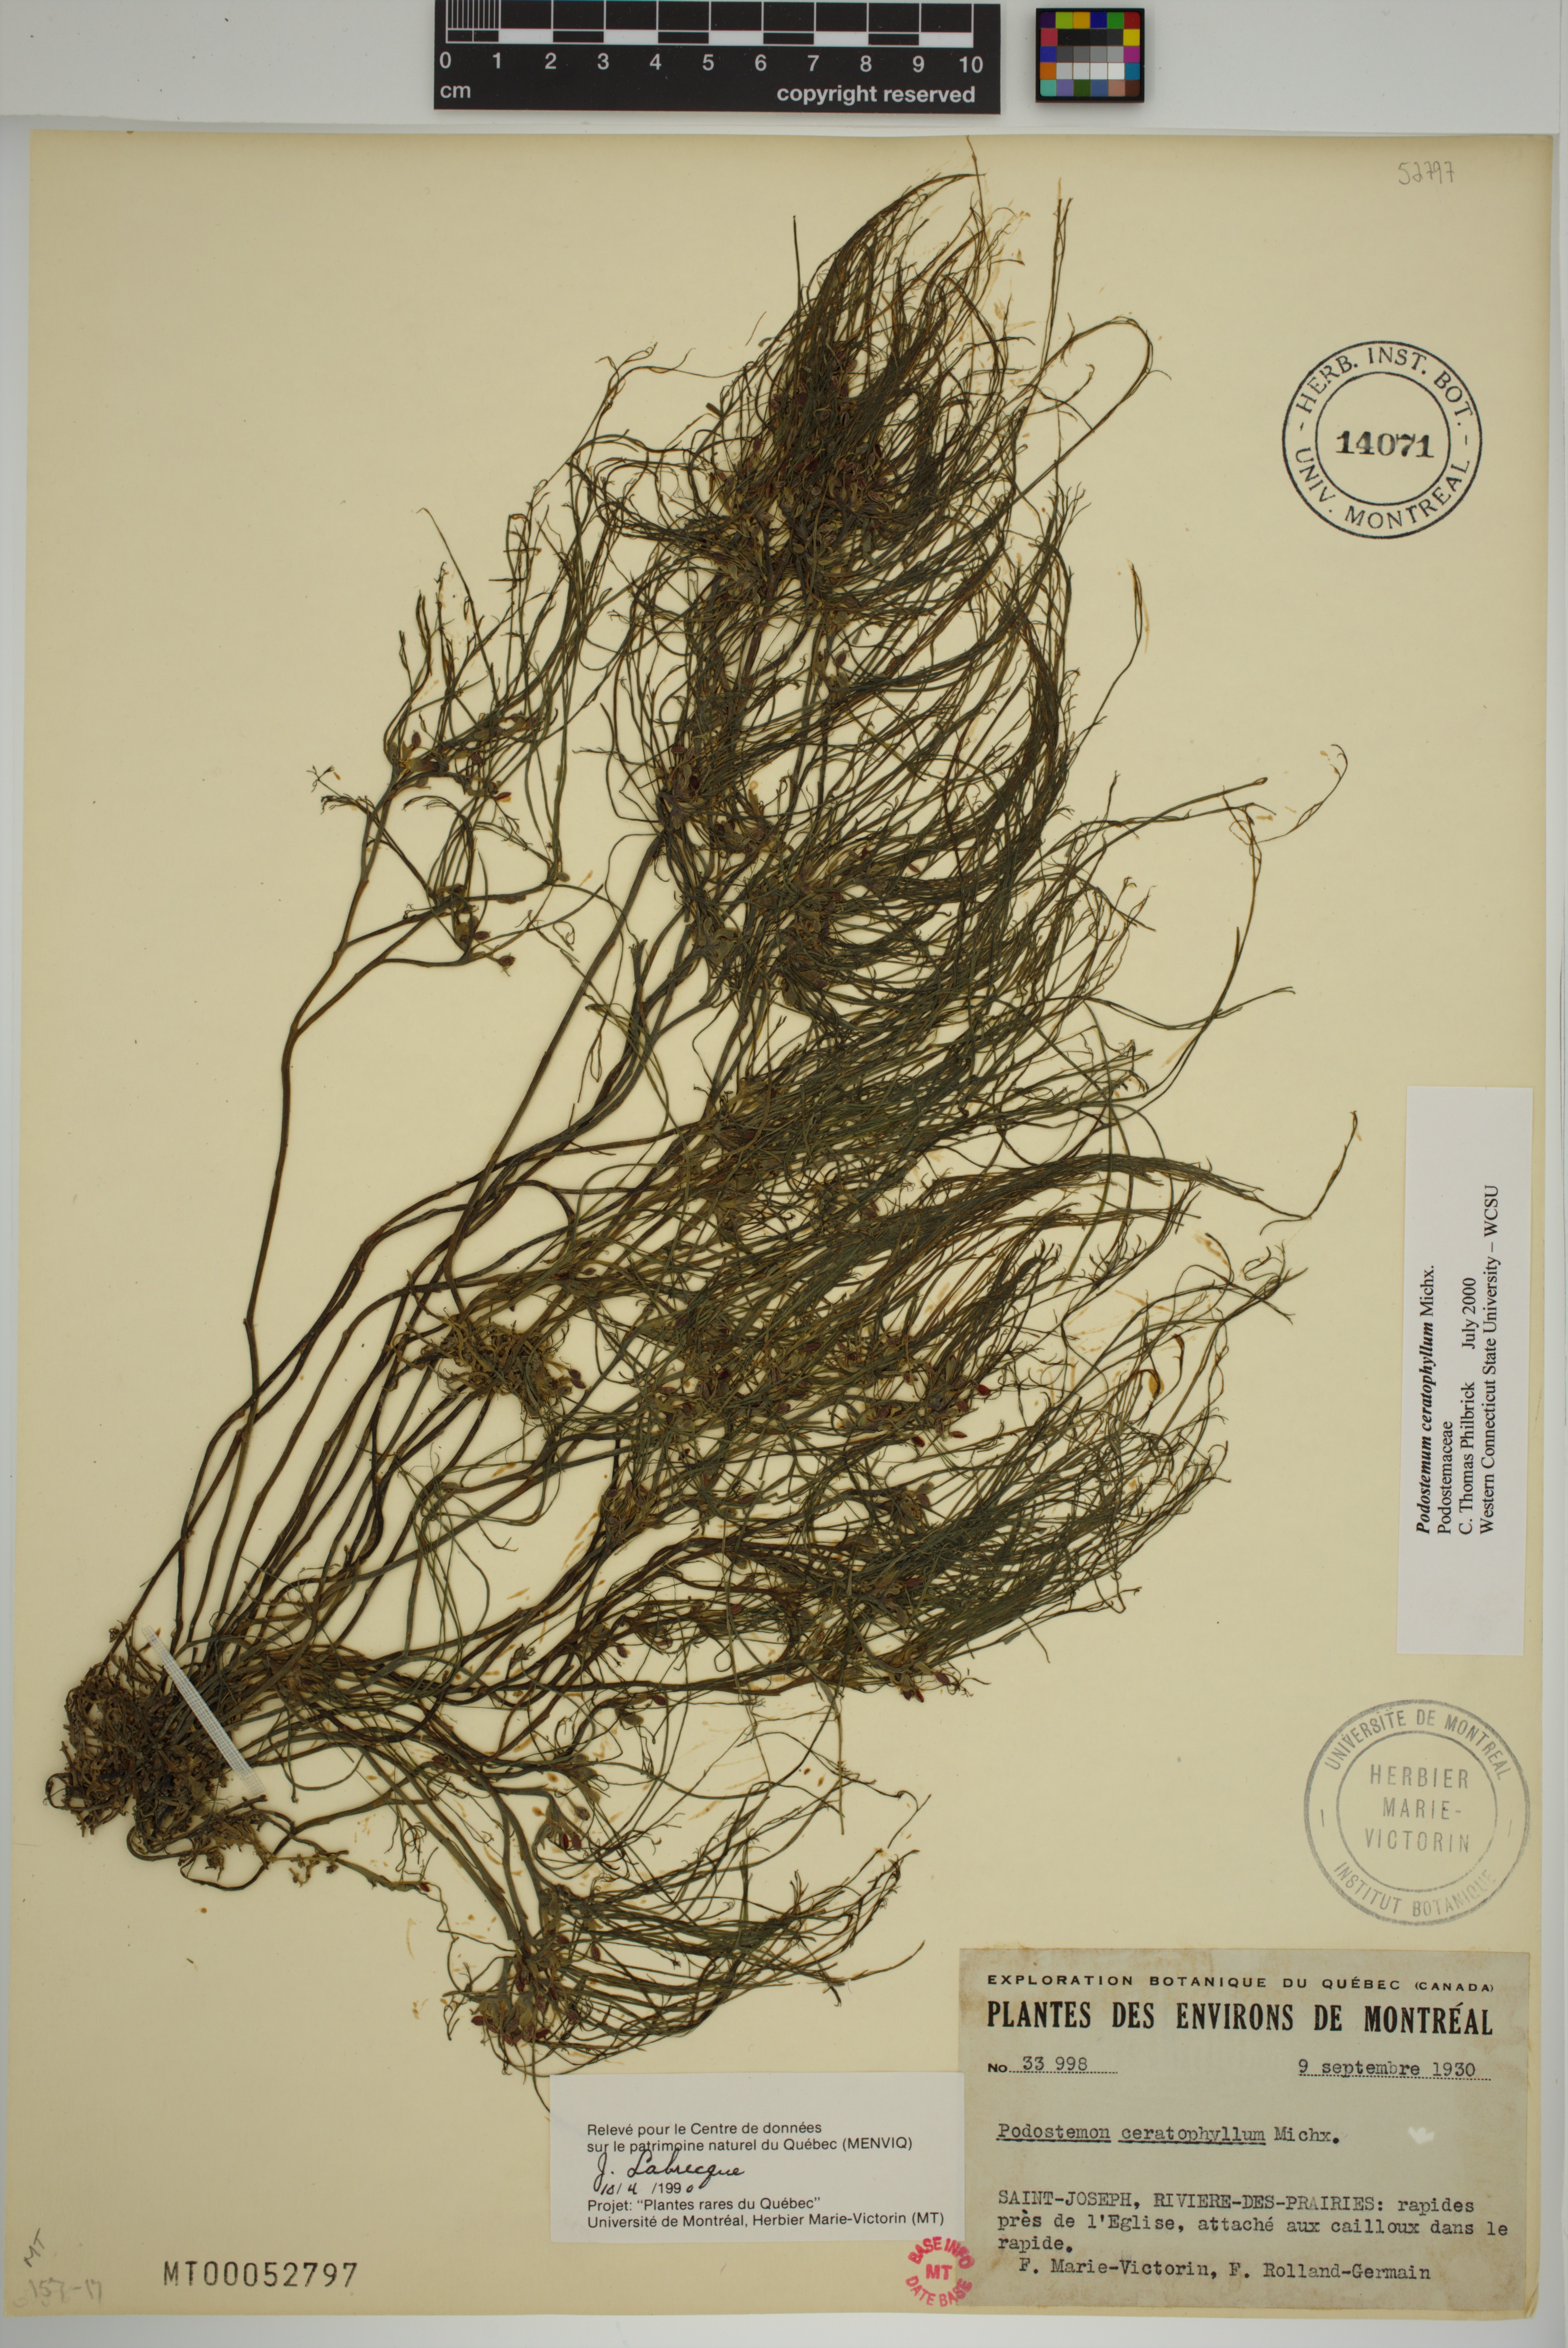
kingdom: Plantae
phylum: Tracheophyta
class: Magnoliopsida
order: Malpighiales
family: Podostemaceae
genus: Podostemum
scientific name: Podostemum ceratophyllum
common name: Horn-leaved riverweed
